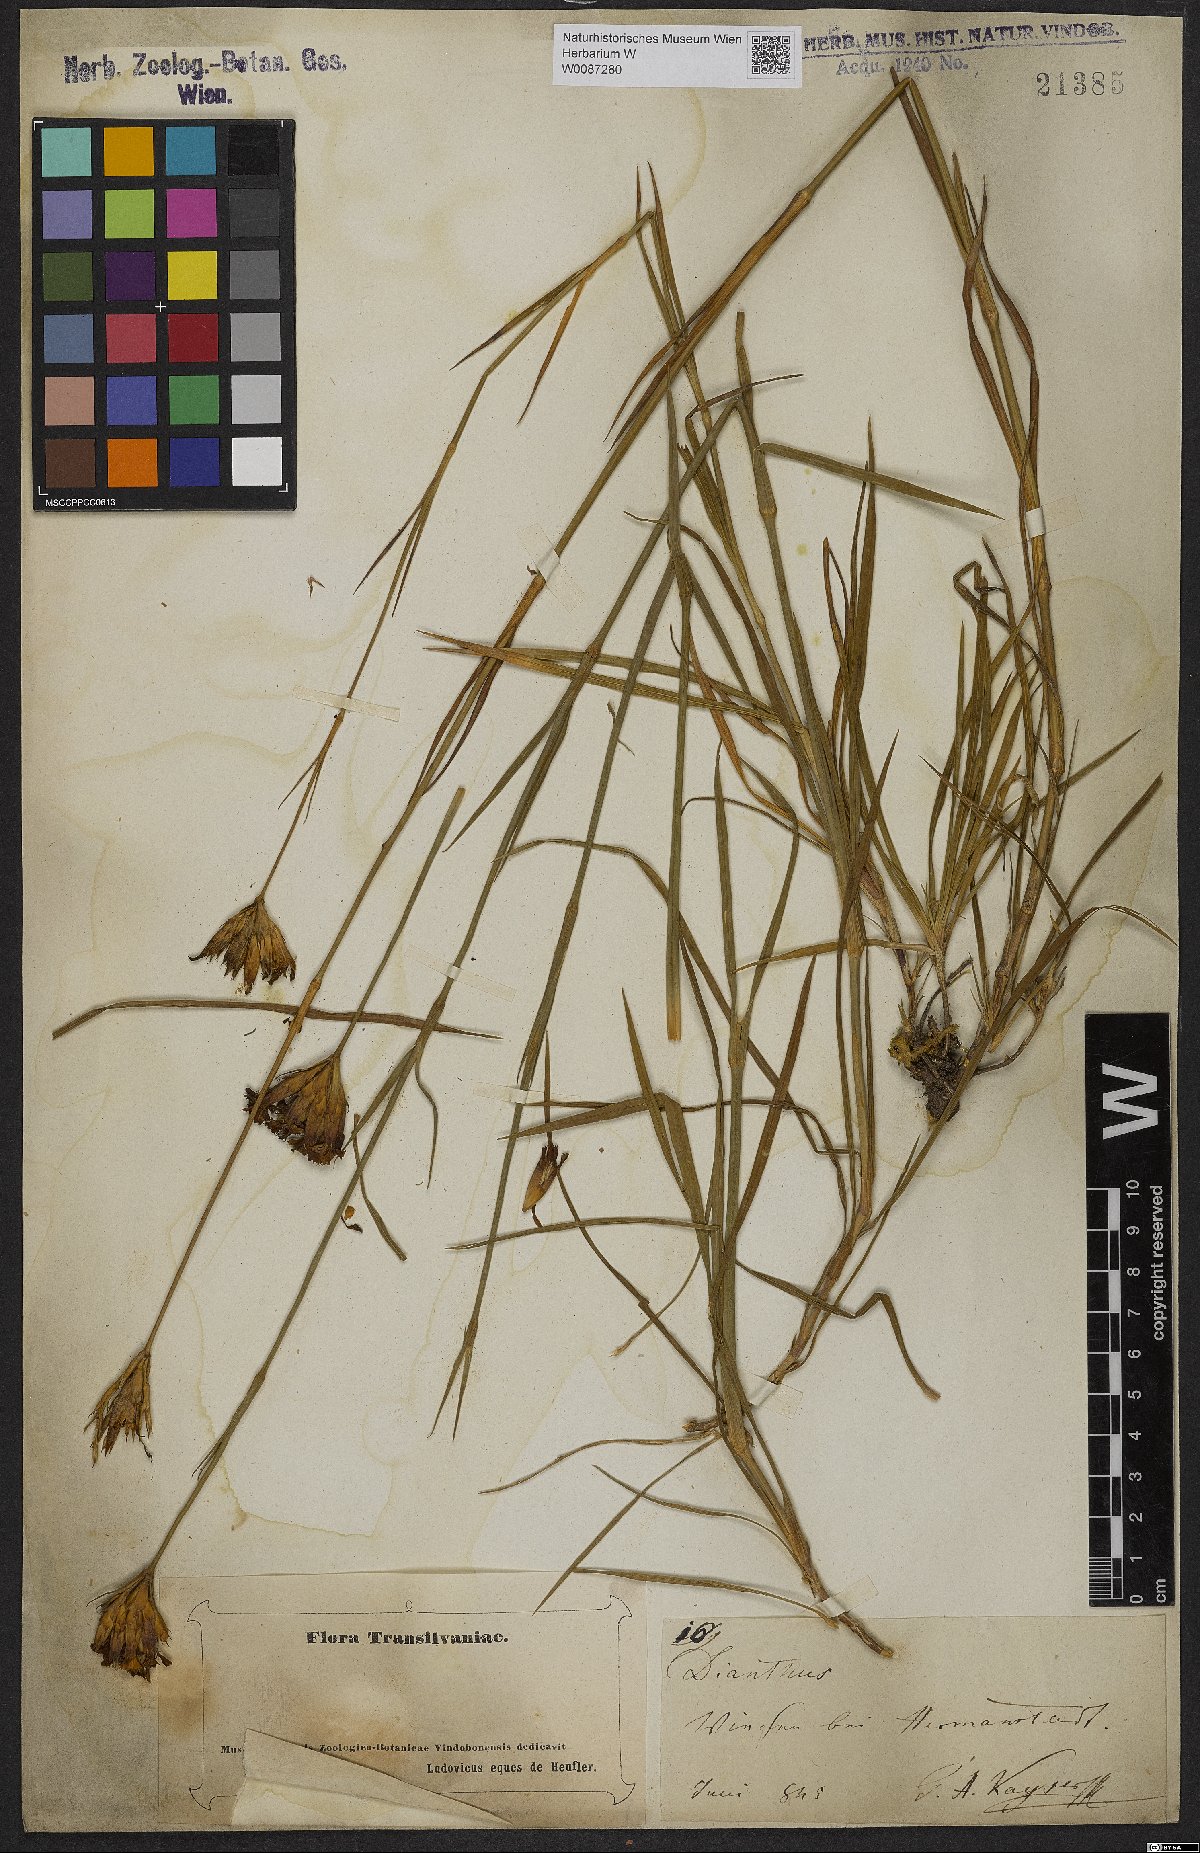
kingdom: Plantae
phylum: Tracheophyta
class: Magnoliopsida
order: Caryophyllales
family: Caryophyllaceae
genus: Dianthus
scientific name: Dianthus
